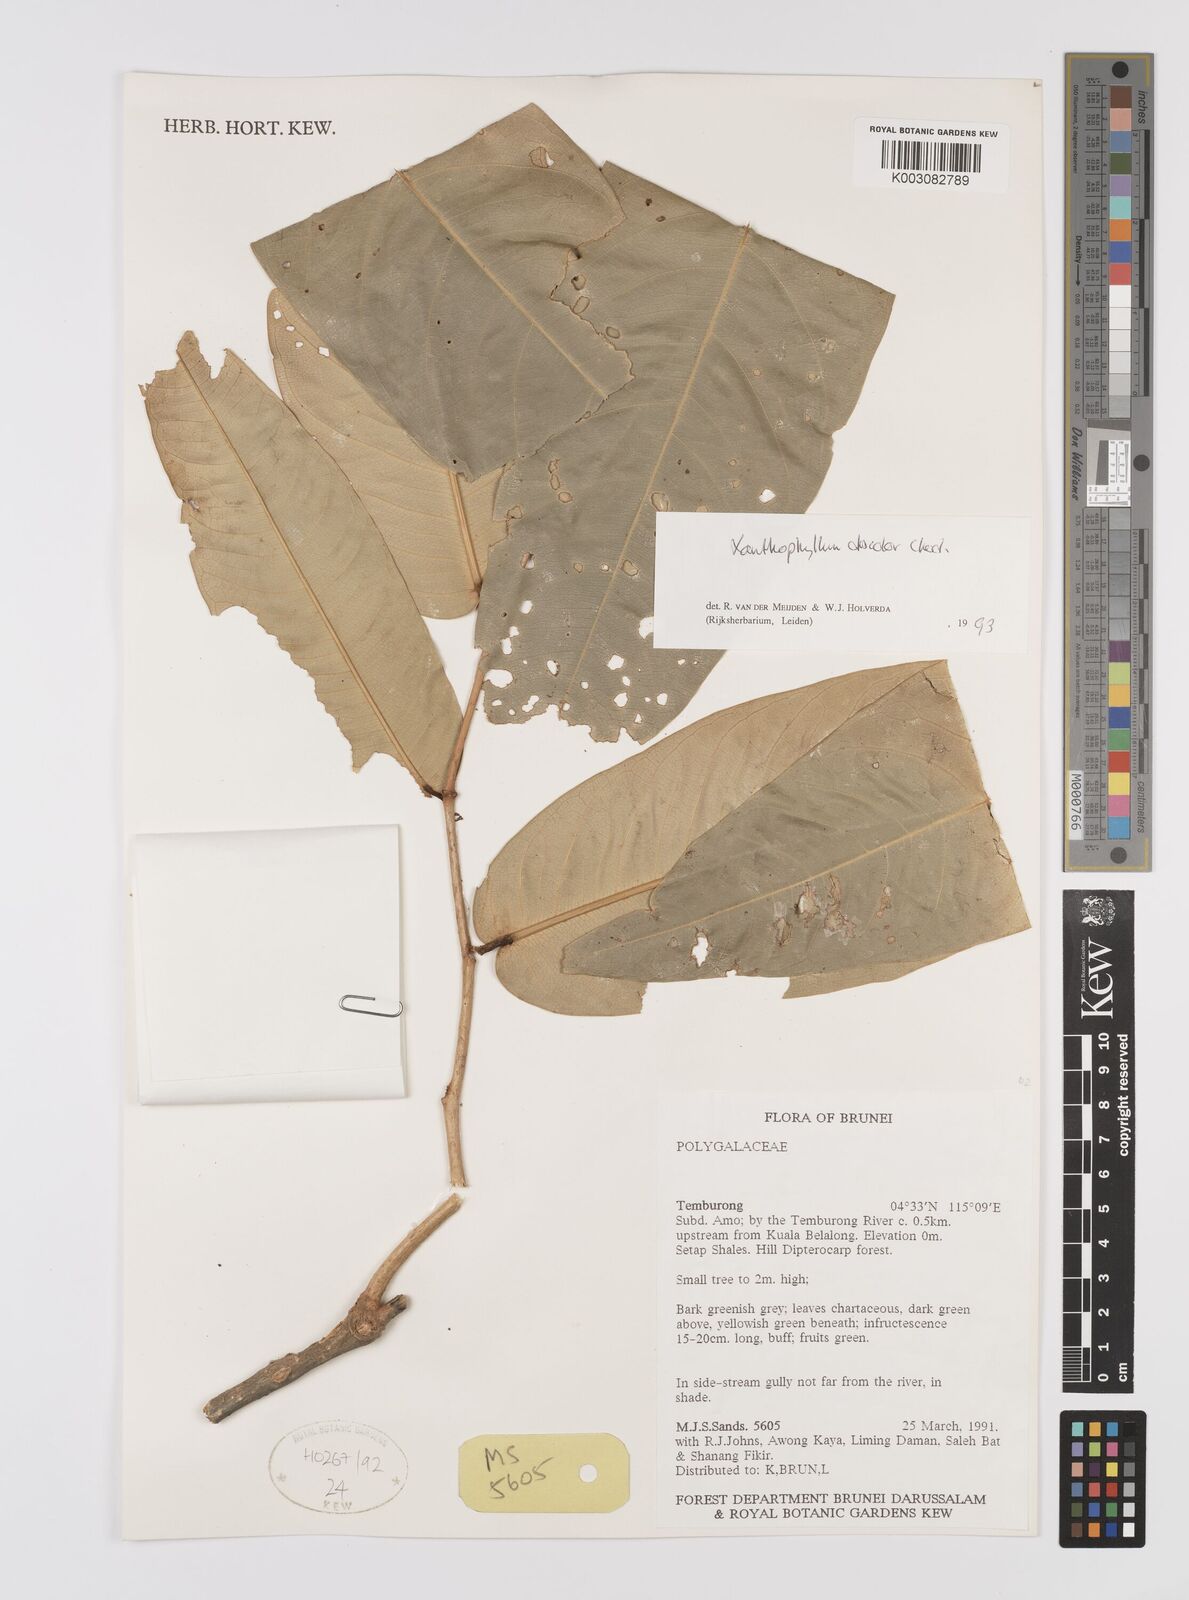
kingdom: Plantae
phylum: Tracheophyta
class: Magnoliopsida
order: Fabales
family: Polygalaceae
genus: Xanthophyllum
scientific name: Xanthophyllum discolor
